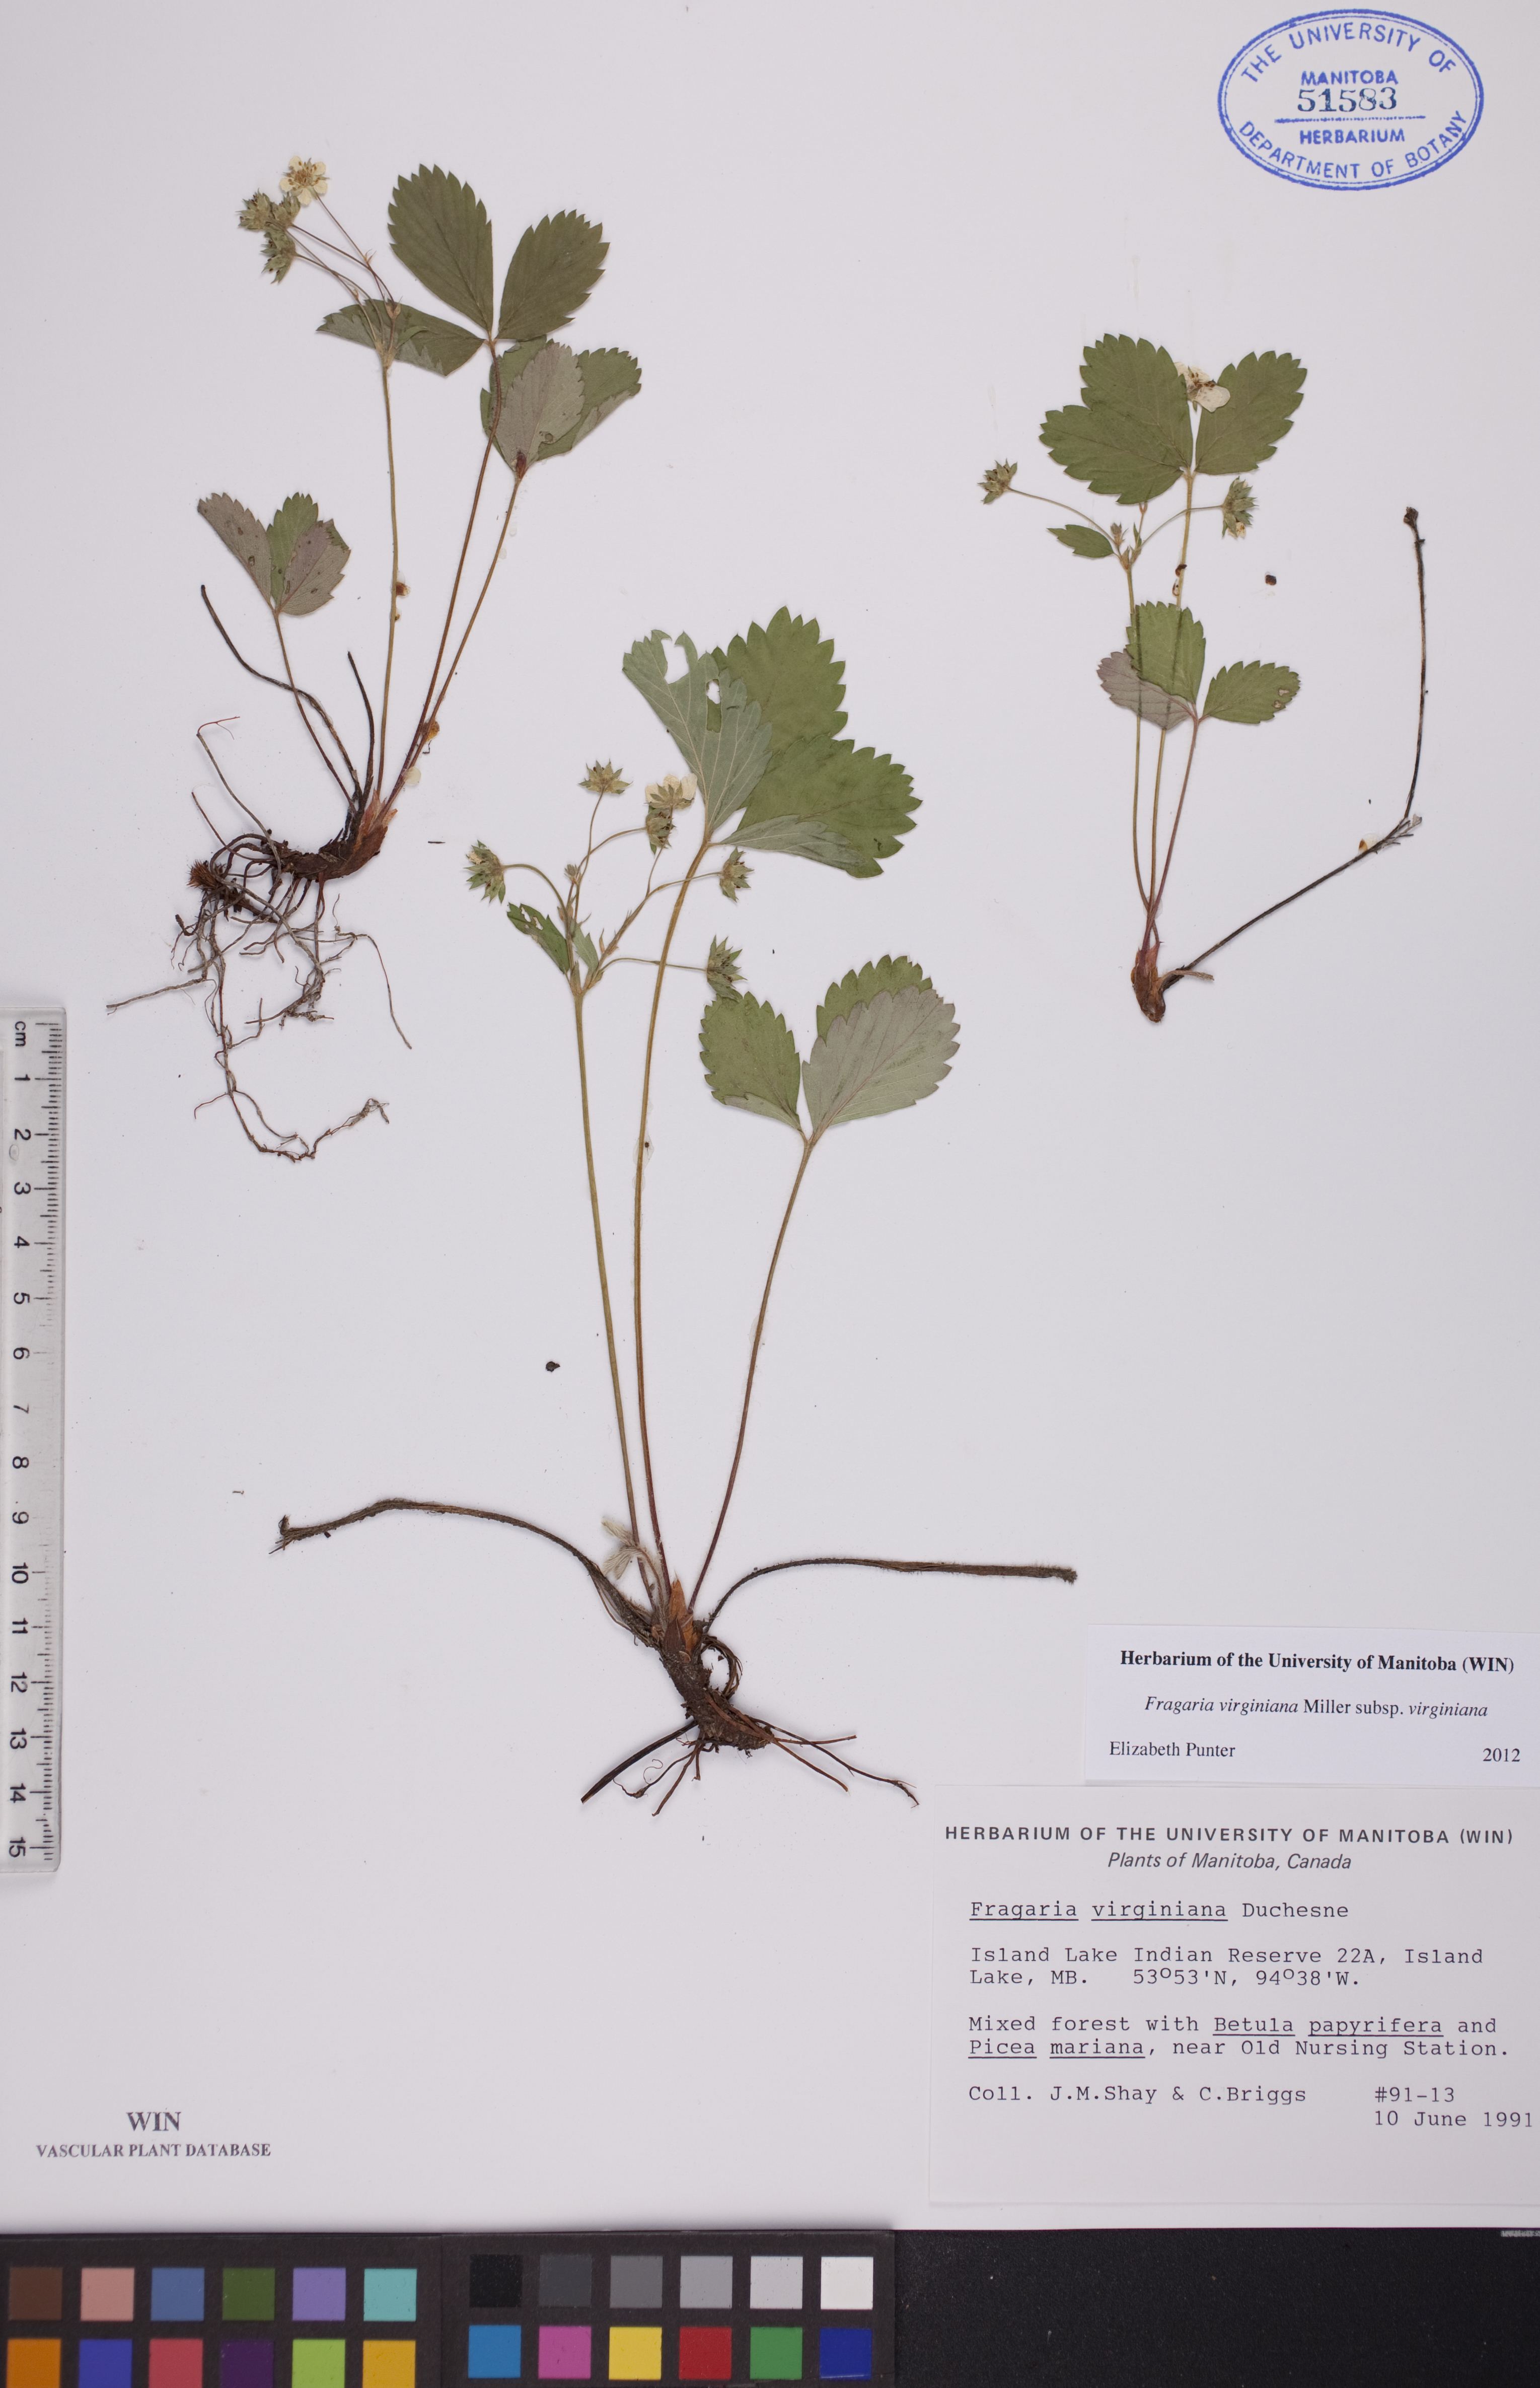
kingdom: Plantae
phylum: Tracheophyta
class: Magnoliopsida
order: Rosales
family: Rosaceae
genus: Fragaria
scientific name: Fragaria virginiana
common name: Thickleaved wild strawberry
